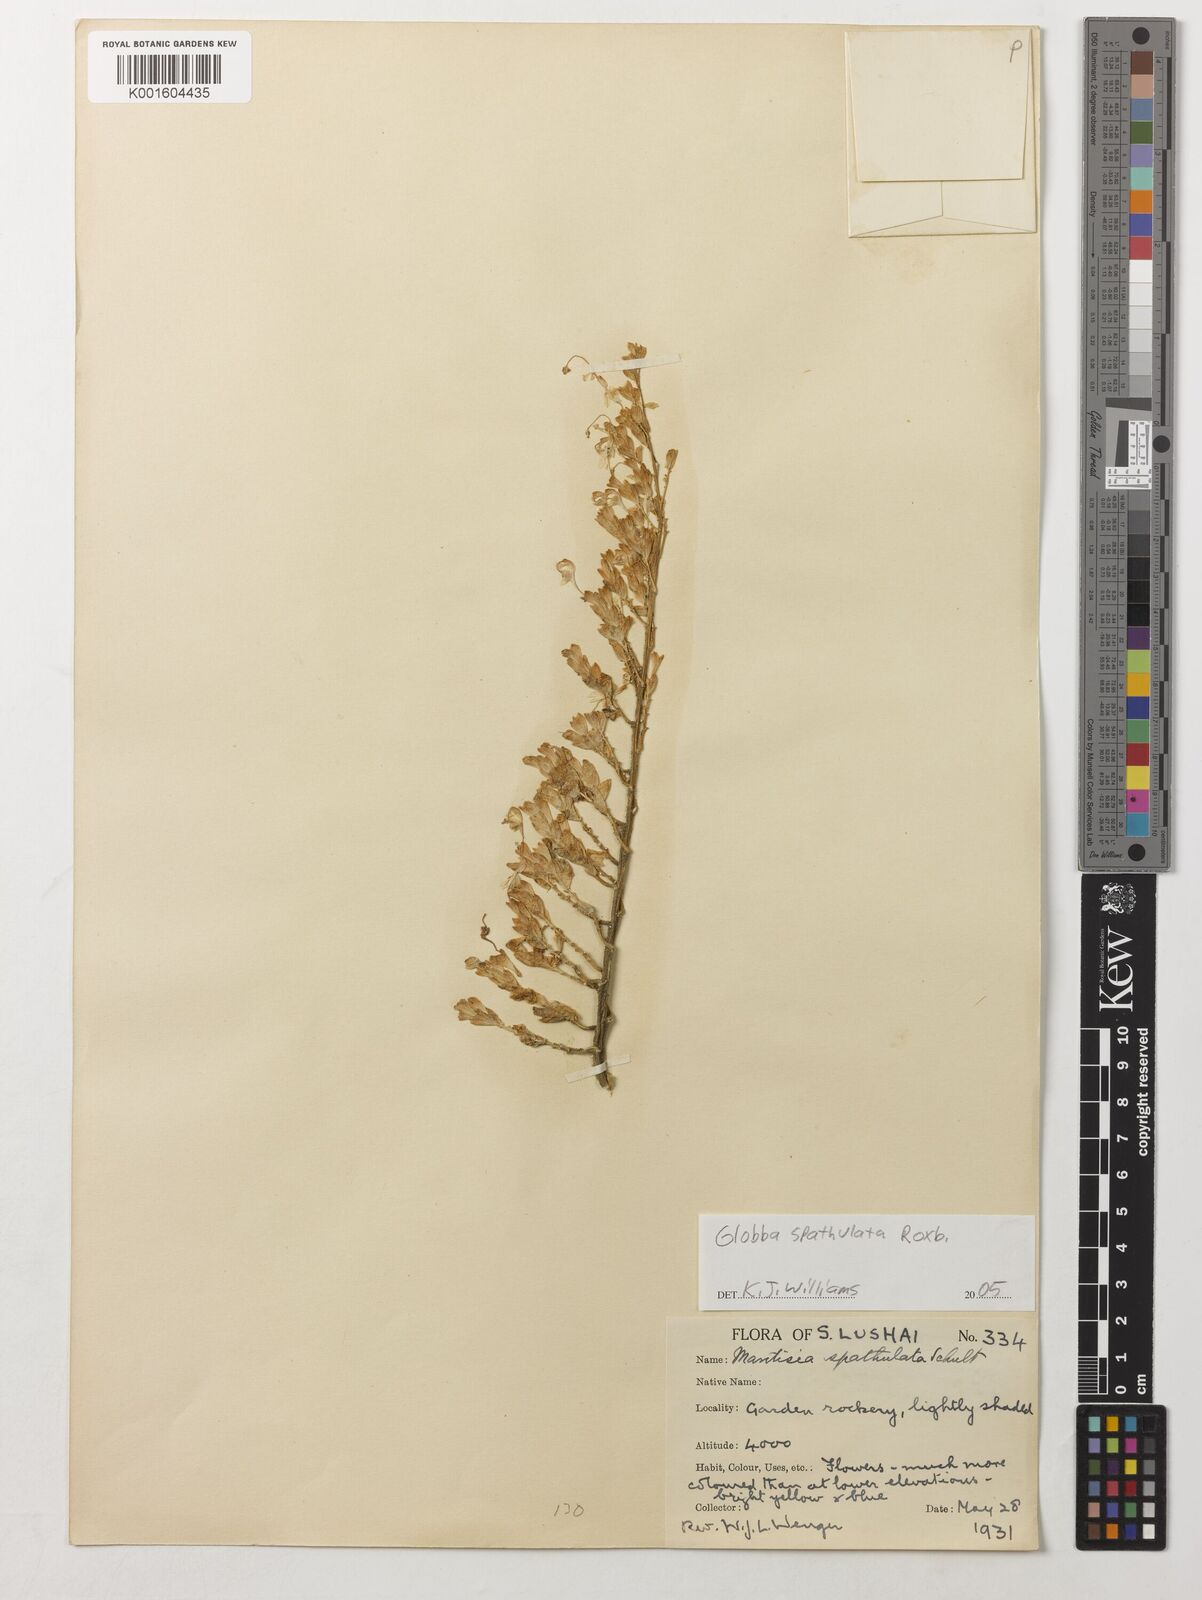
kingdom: Plantae
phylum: Tracheophyta
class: Liliopsida
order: Zingiberales
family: Zingiberaceae
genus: Globba
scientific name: Globba spathulata
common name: Dancing girl flower
